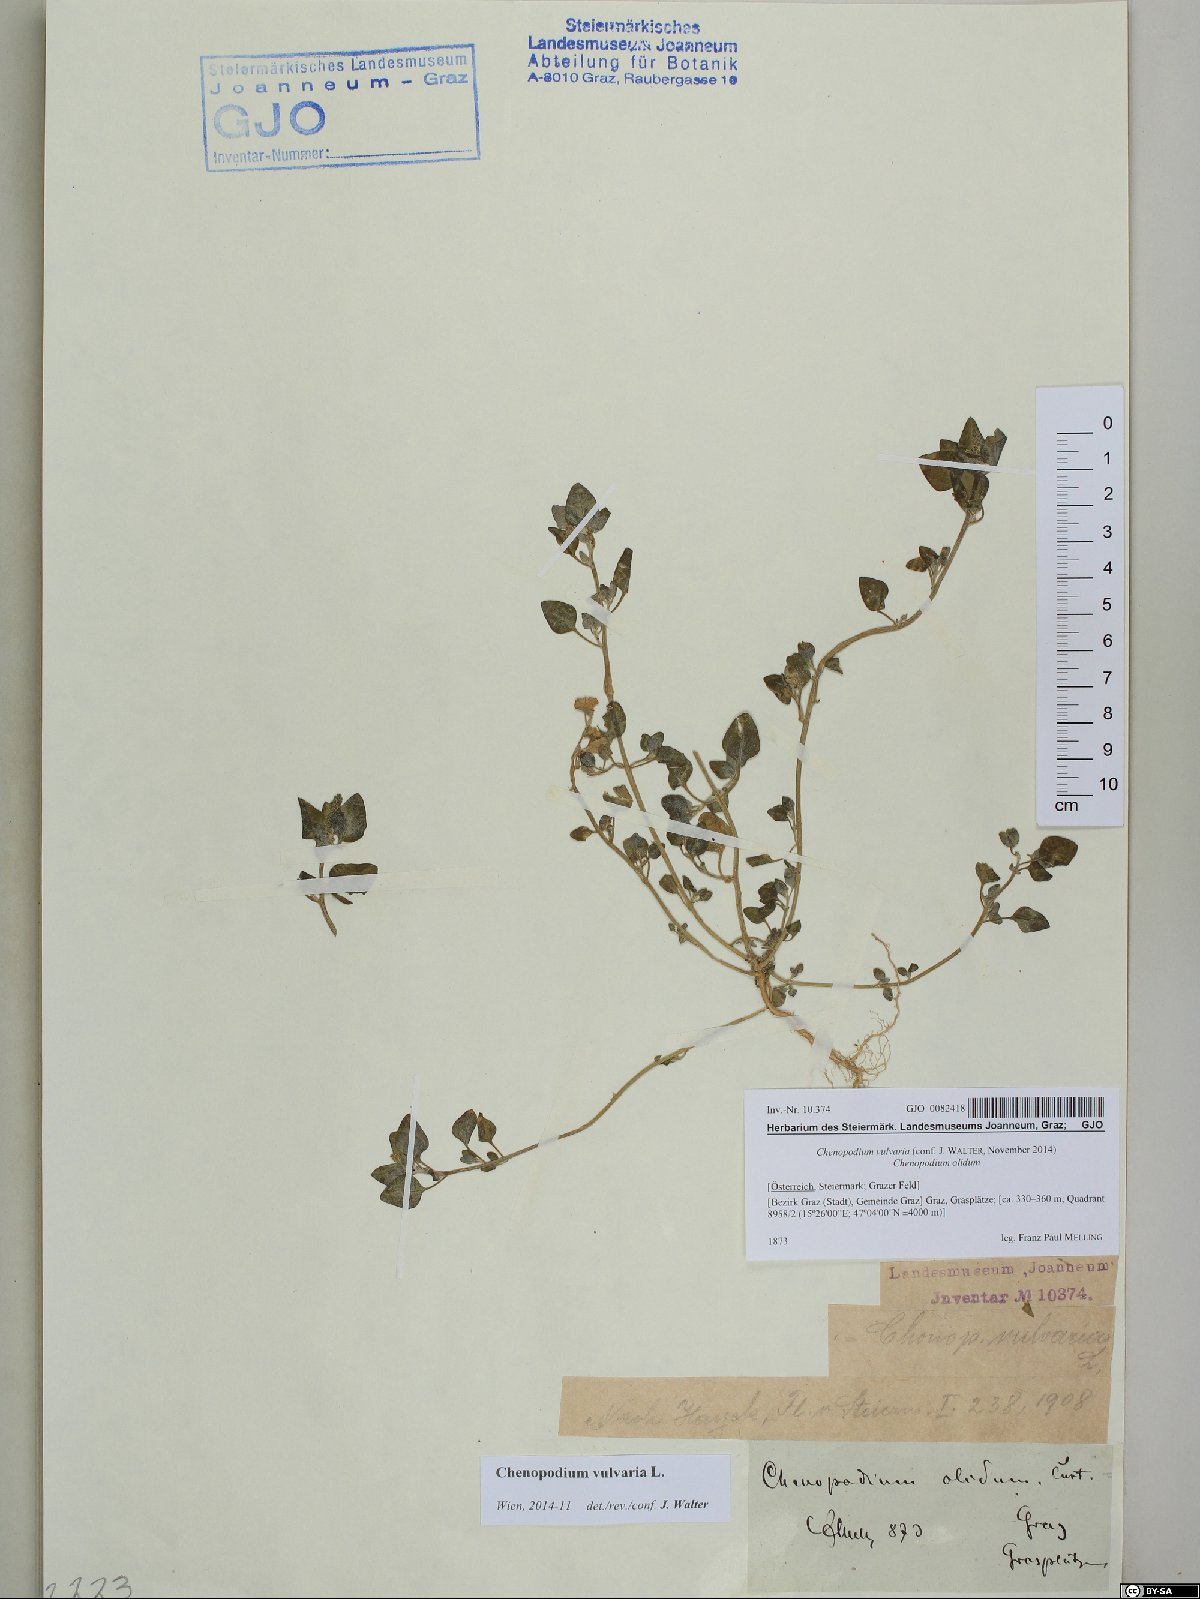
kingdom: Plantae
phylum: Tracheophyta
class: Magnoliopsida
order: Caryophyllales
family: Amaranthaceae
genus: Chenopodium
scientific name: Chenopodium vulvaria
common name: Stinking goosefoot
